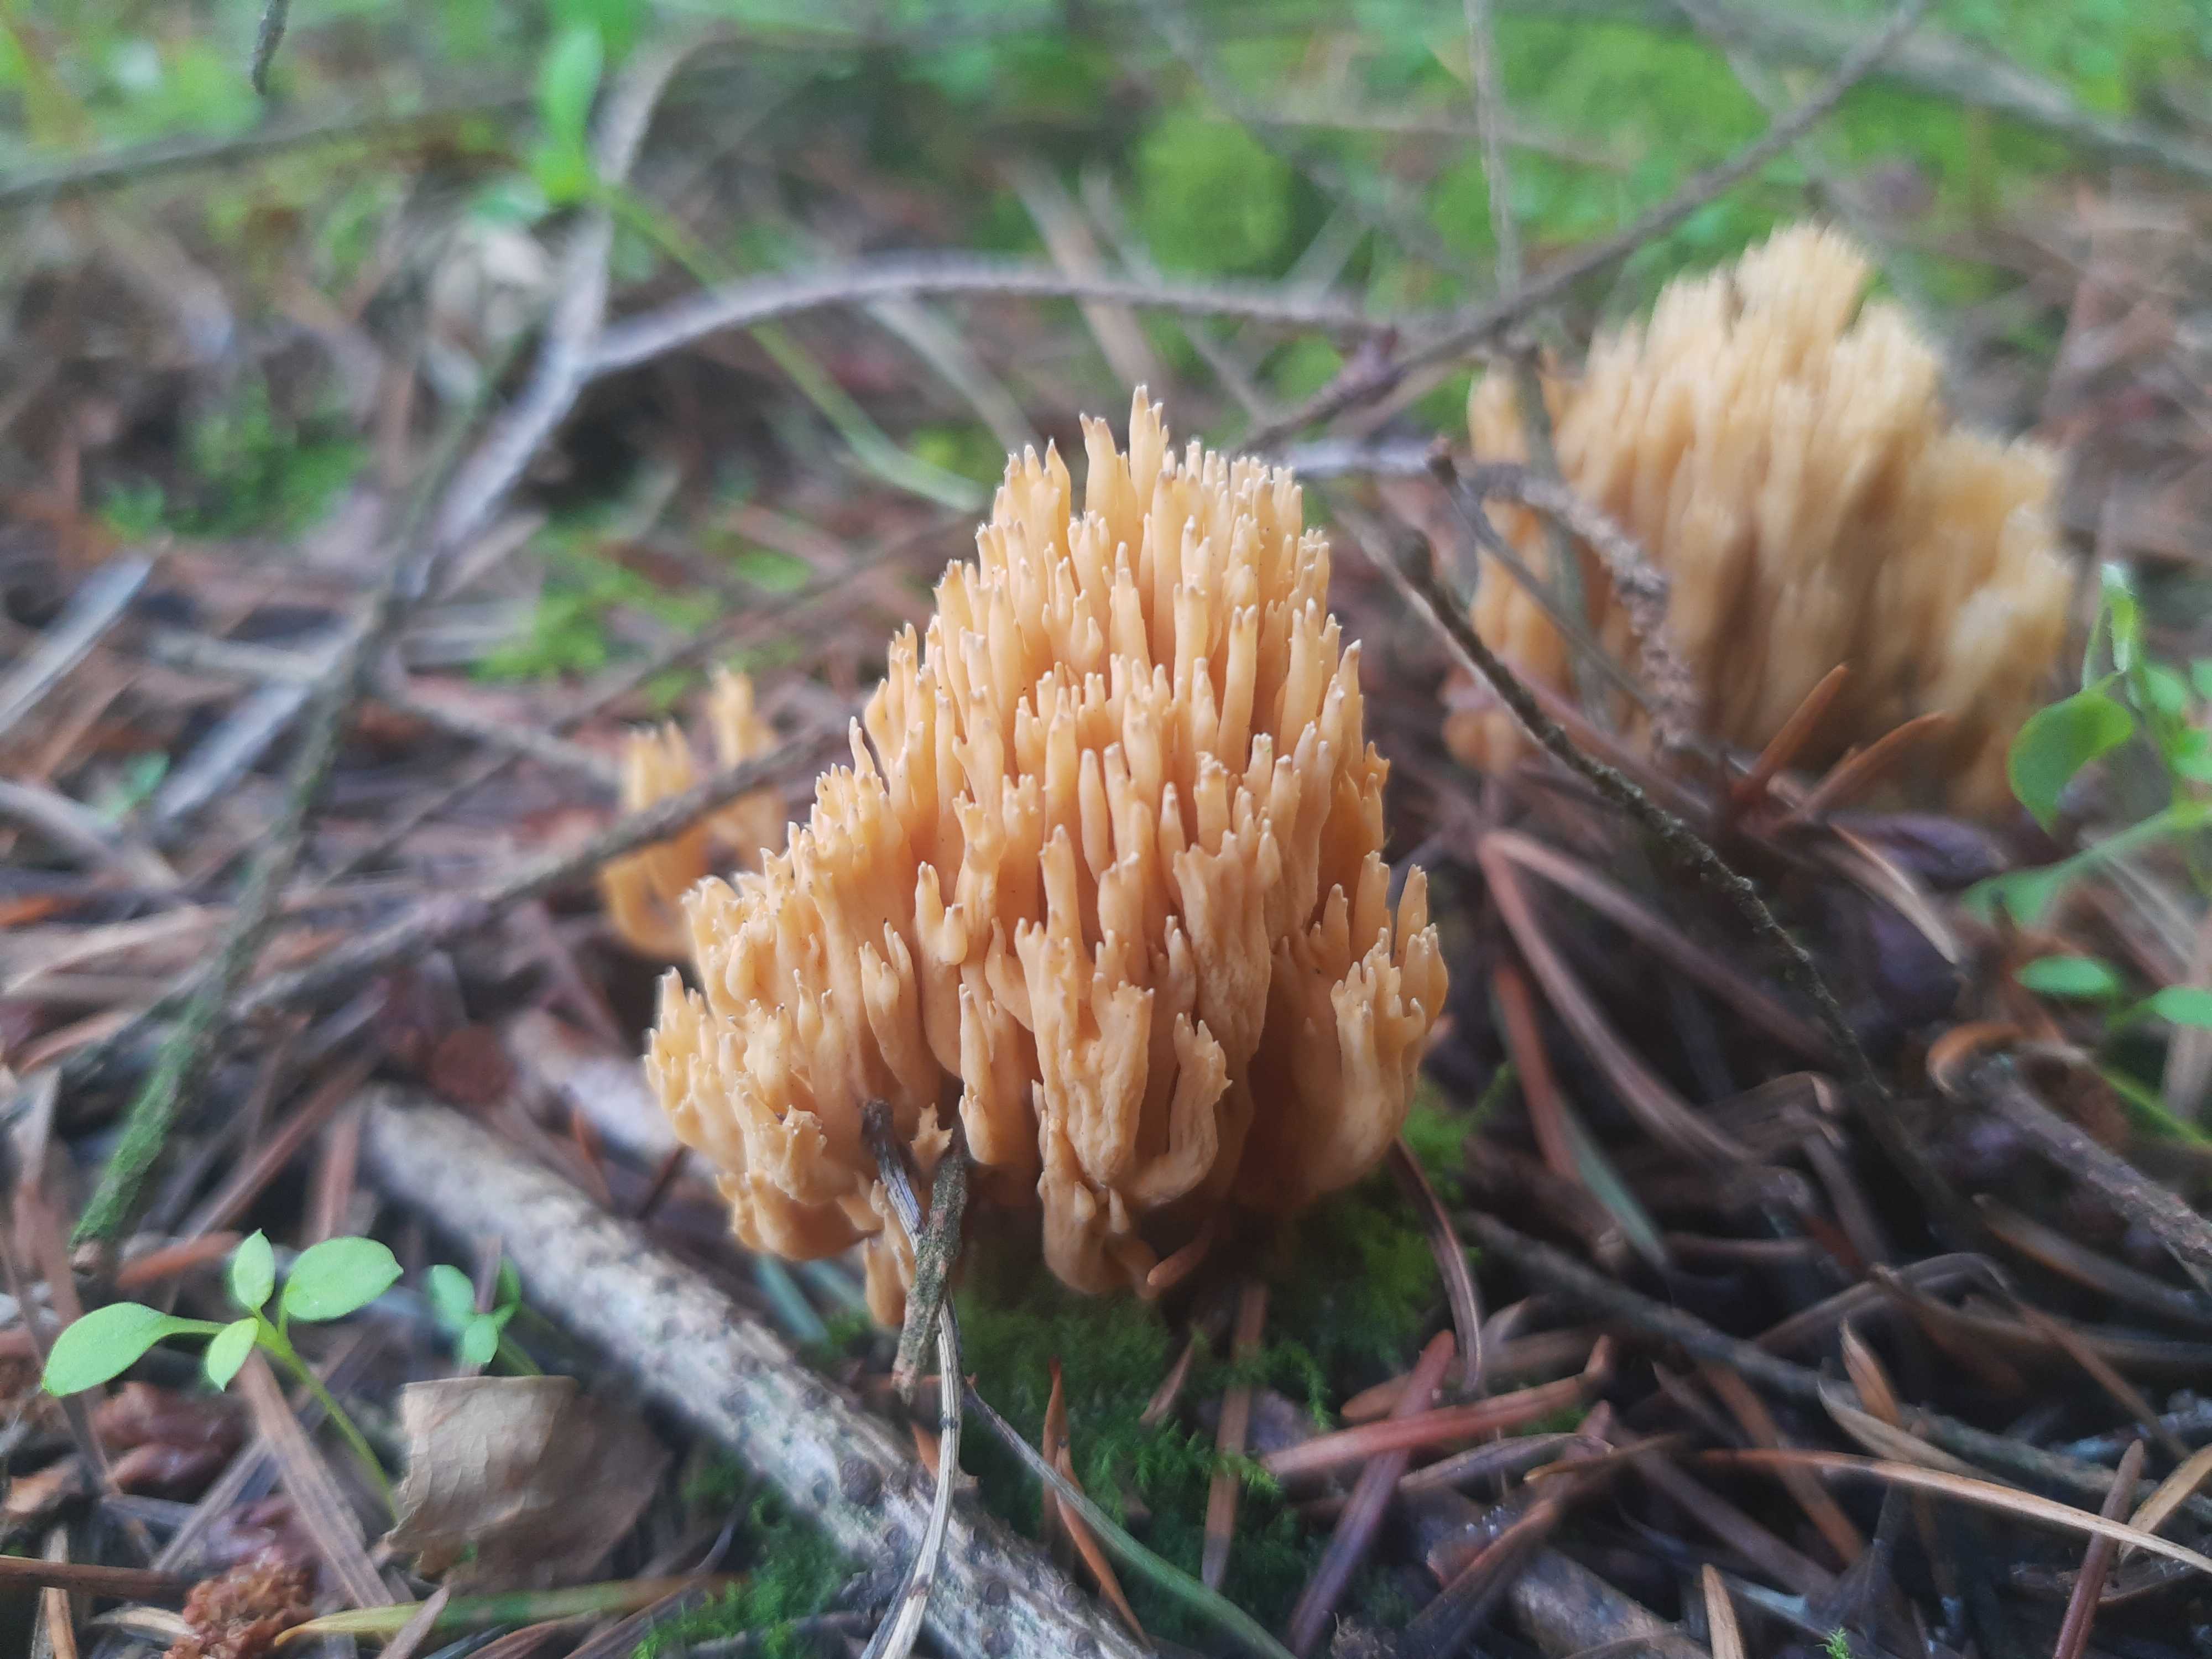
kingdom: Fungi
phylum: Basidiomycota
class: Agaricomycetes
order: Gomphales
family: Gomphaceae
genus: Phaeoclavulina
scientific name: Phaeoclavulina eumorpha
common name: gran-koralsvamp
